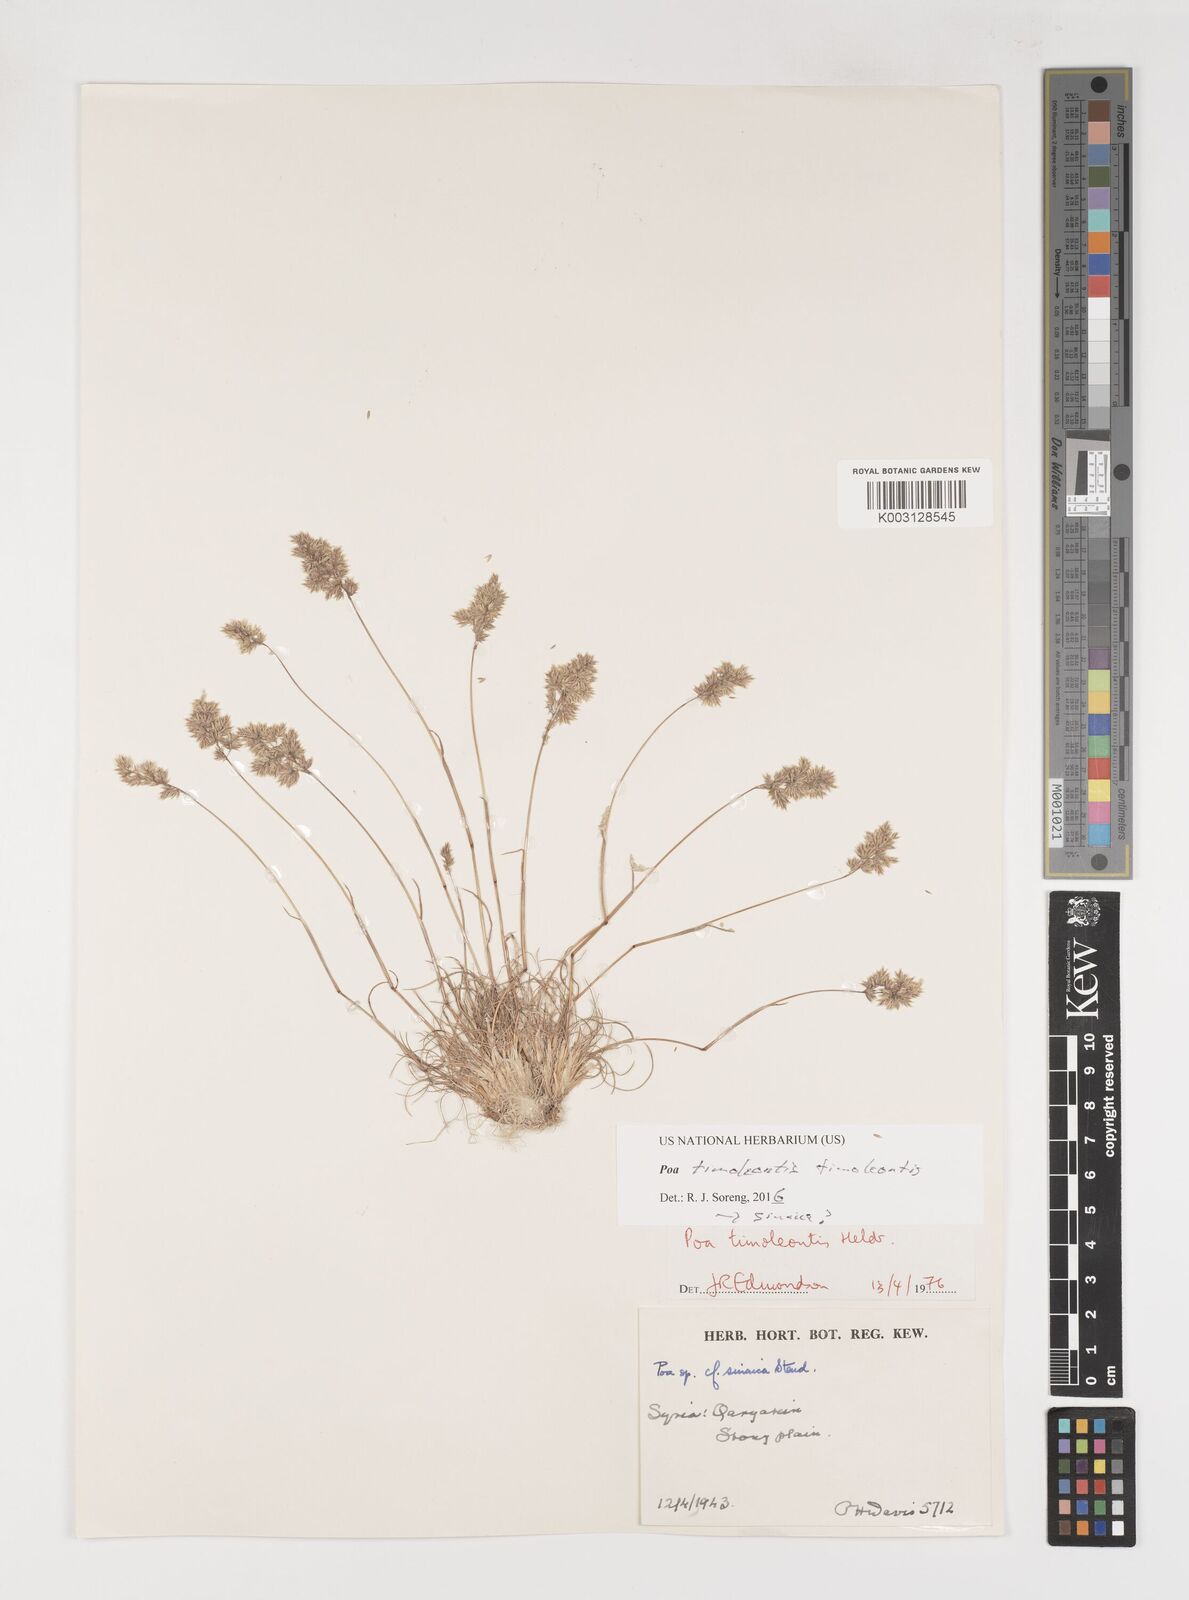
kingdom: Plantae
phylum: Tracheophyta
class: Liliopsida
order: Poales
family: Poaceae
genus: Poa
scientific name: Poa timoleontis
